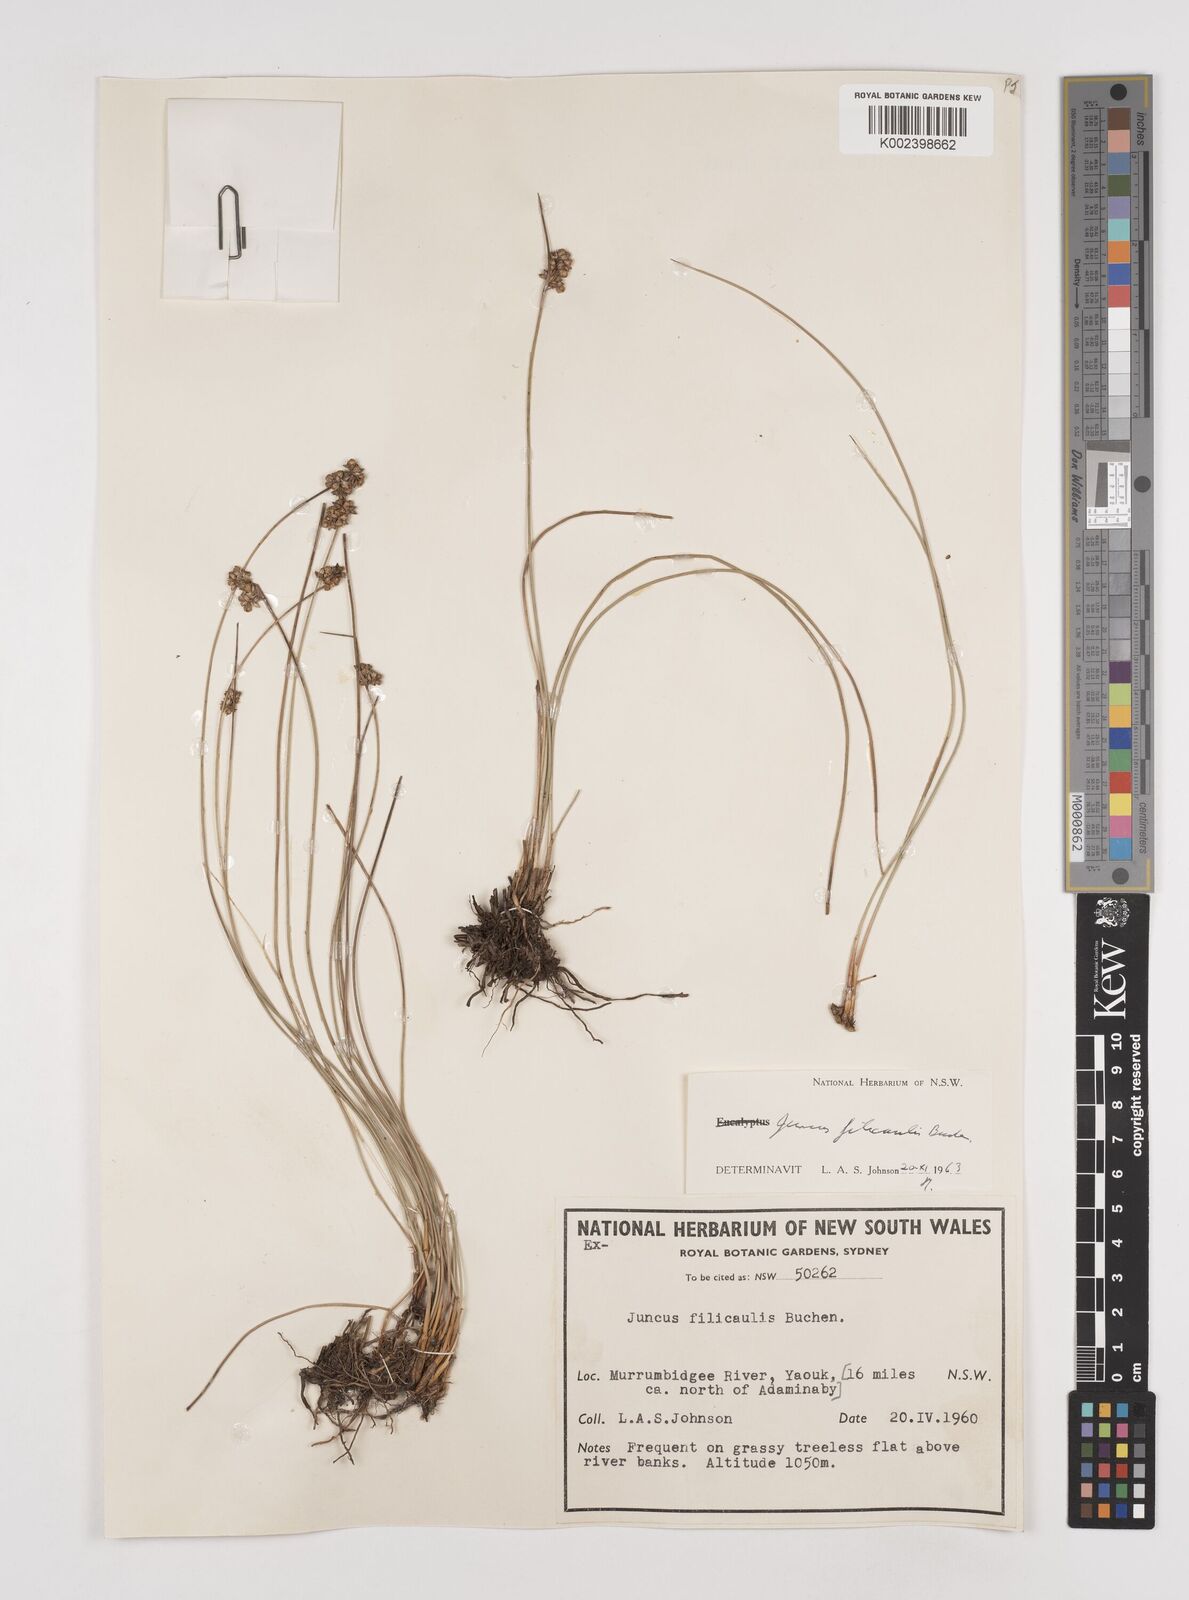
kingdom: Plantae
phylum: Tracheophyta
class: Liliopsida
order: Poales
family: Juncaceae
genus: Juncus
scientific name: Juncus filicaulis
